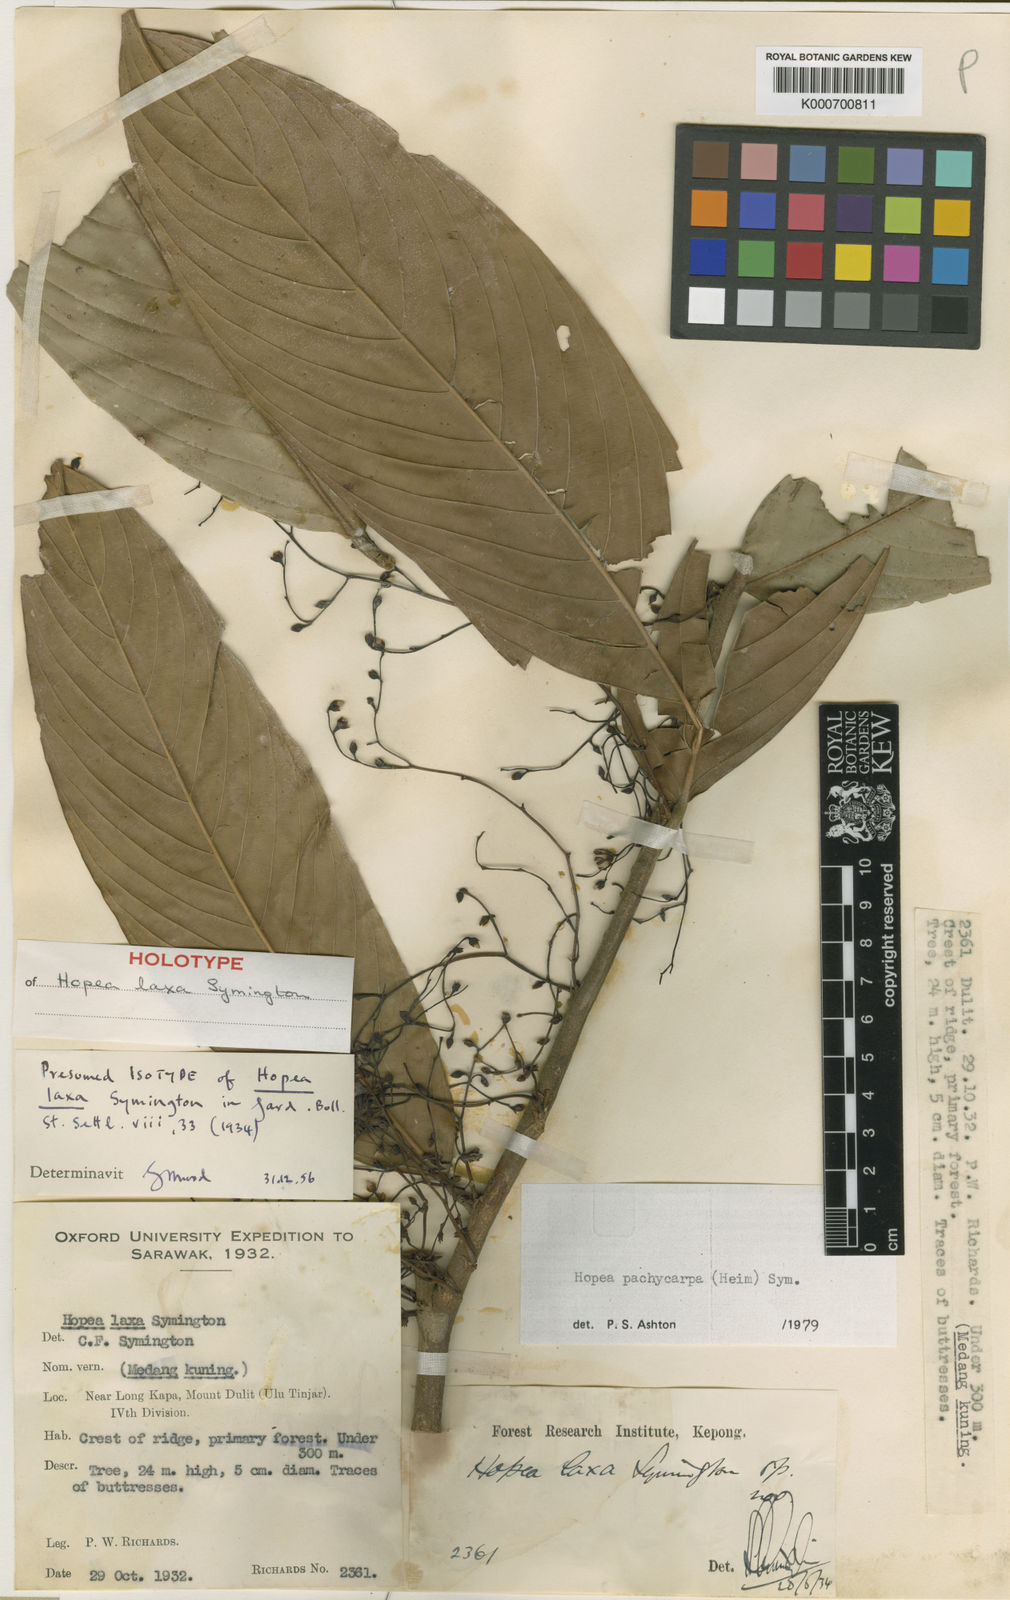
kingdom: Plantae
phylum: Tracheophyta
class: Magnoliopsida
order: Malvales
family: Dipterocarpaceae
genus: Hopea
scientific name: Hopea pachycarpa
